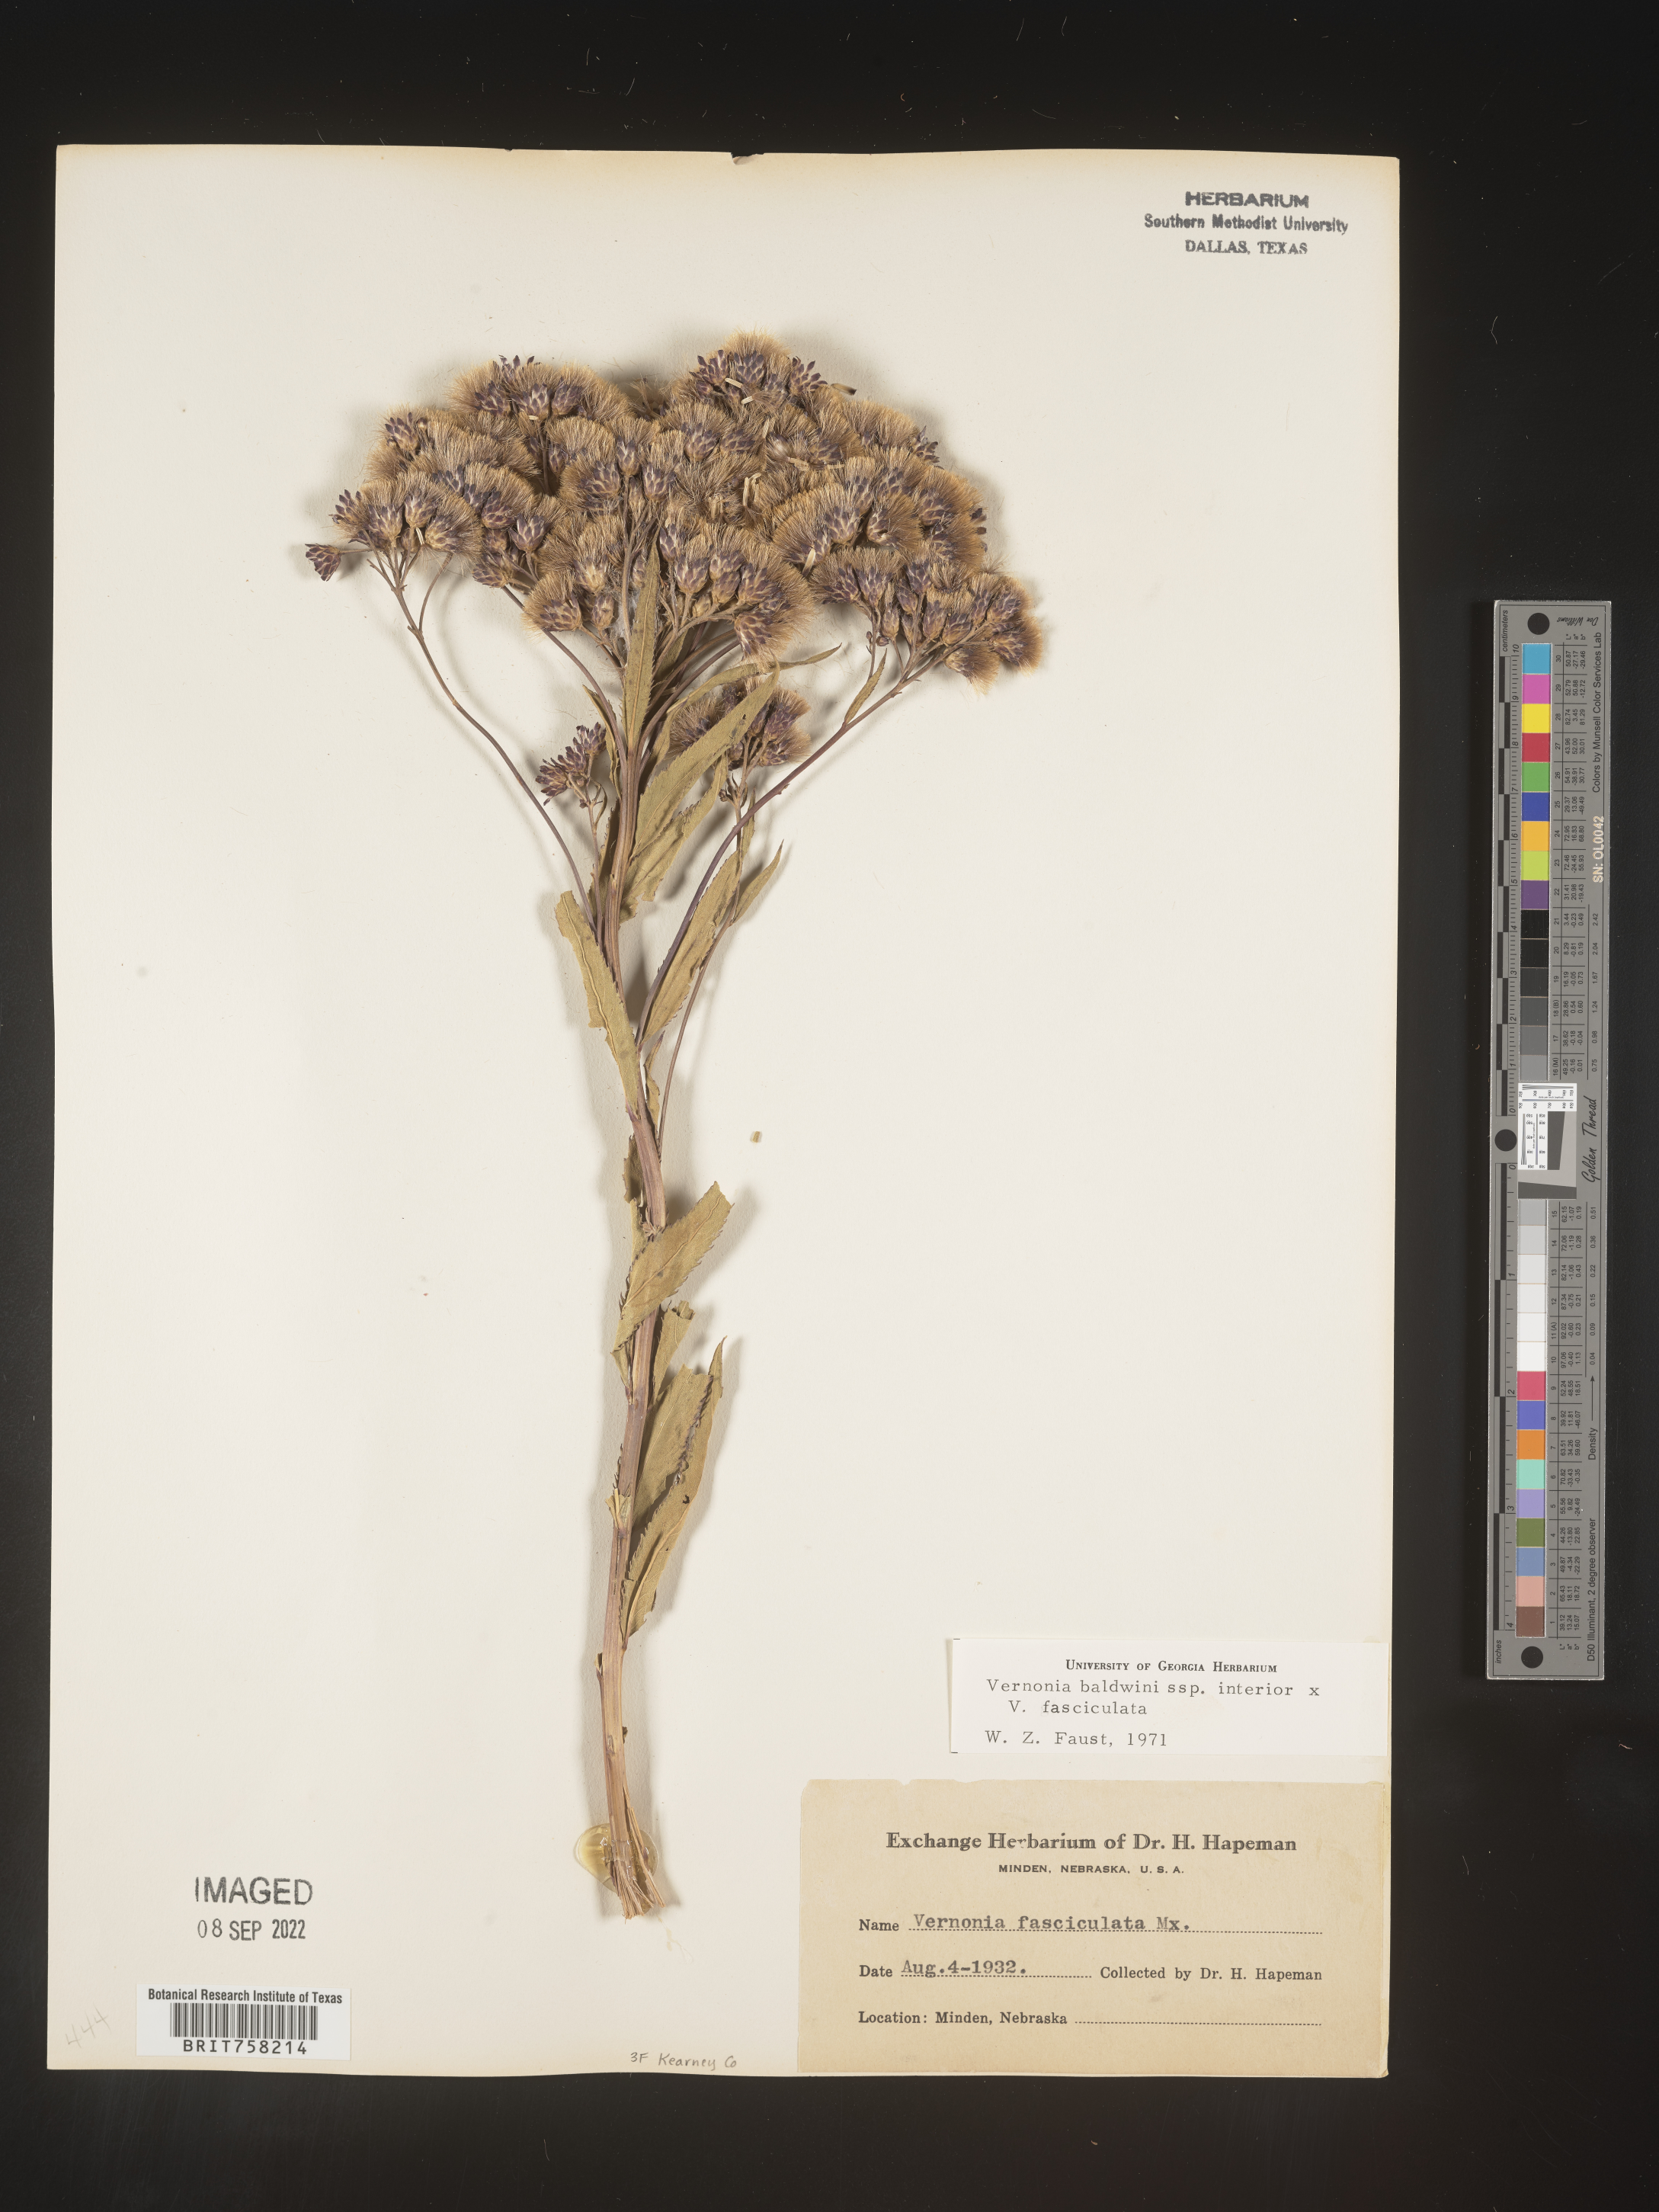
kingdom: Plantae
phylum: Tracheophyta
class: Magnoliopsida
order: Asterales
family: Asteraceae
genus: Vernonia
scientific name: Vernonia baldwinii
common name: Western ironweed
